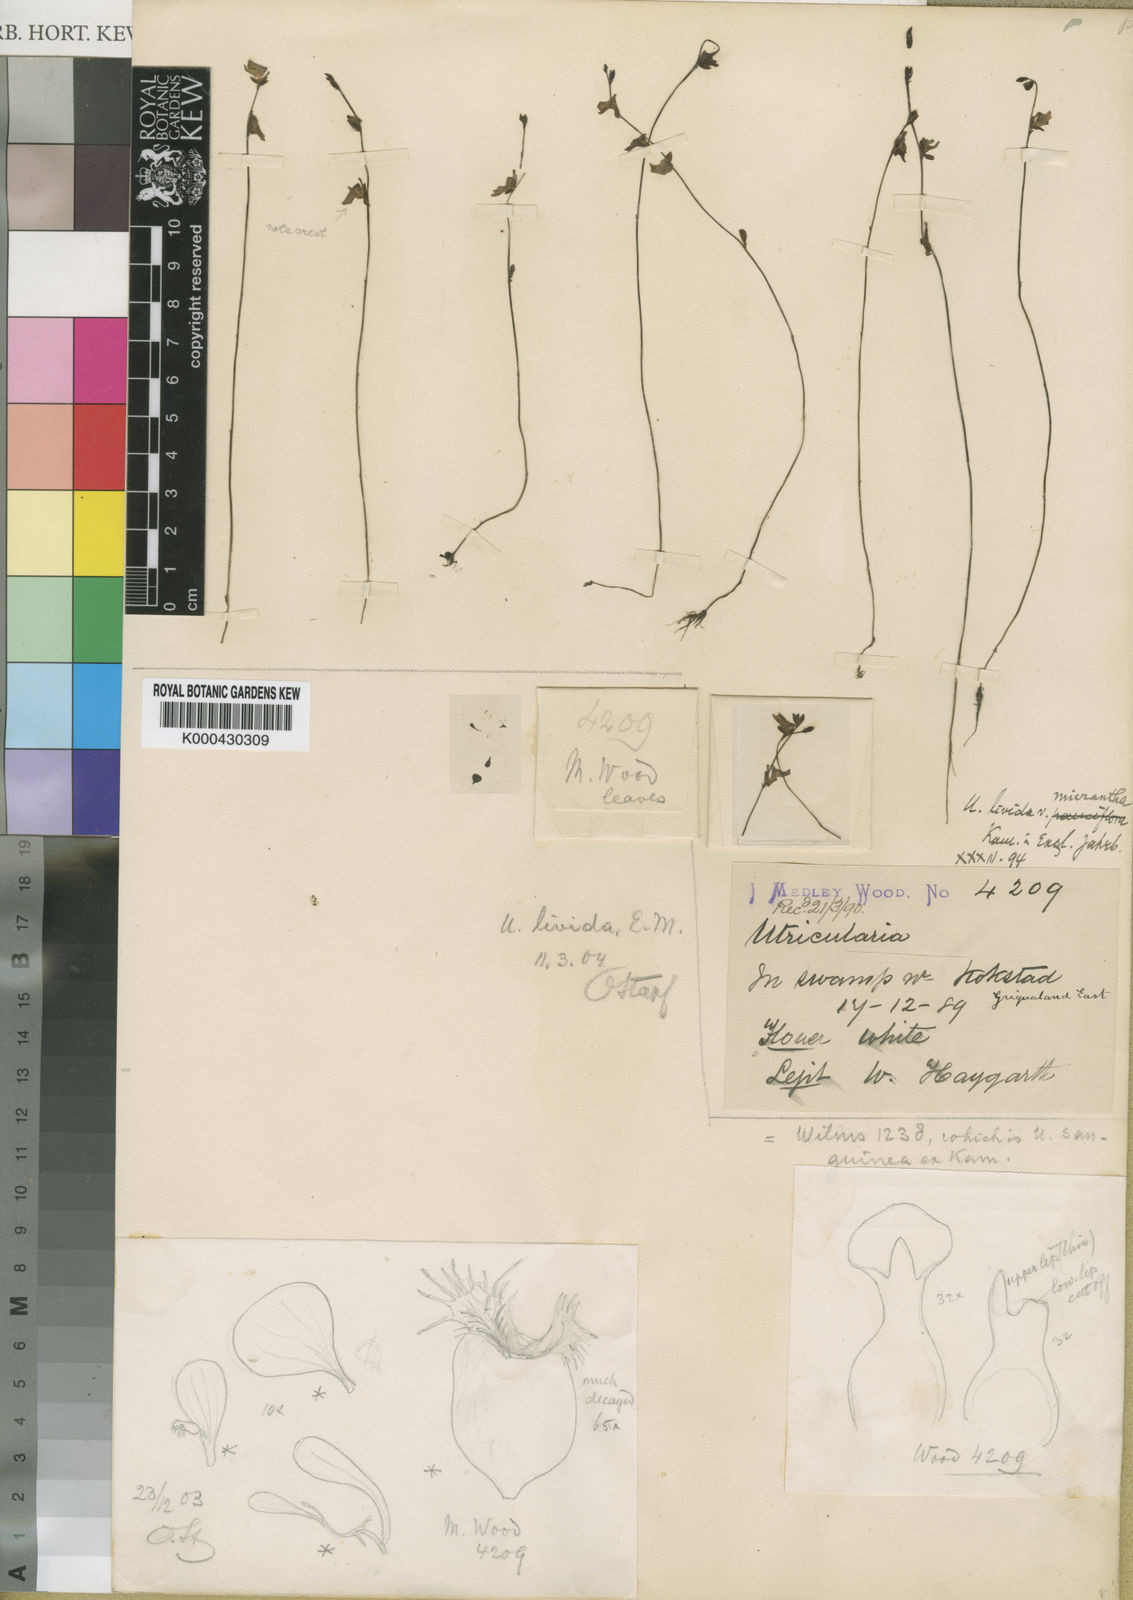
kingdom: Plantae
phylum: Tracheophyta
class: Magnoliopsida
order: Lamiales
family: Lentibulariaceae
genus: Utricularia
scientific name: Utricularia livida
